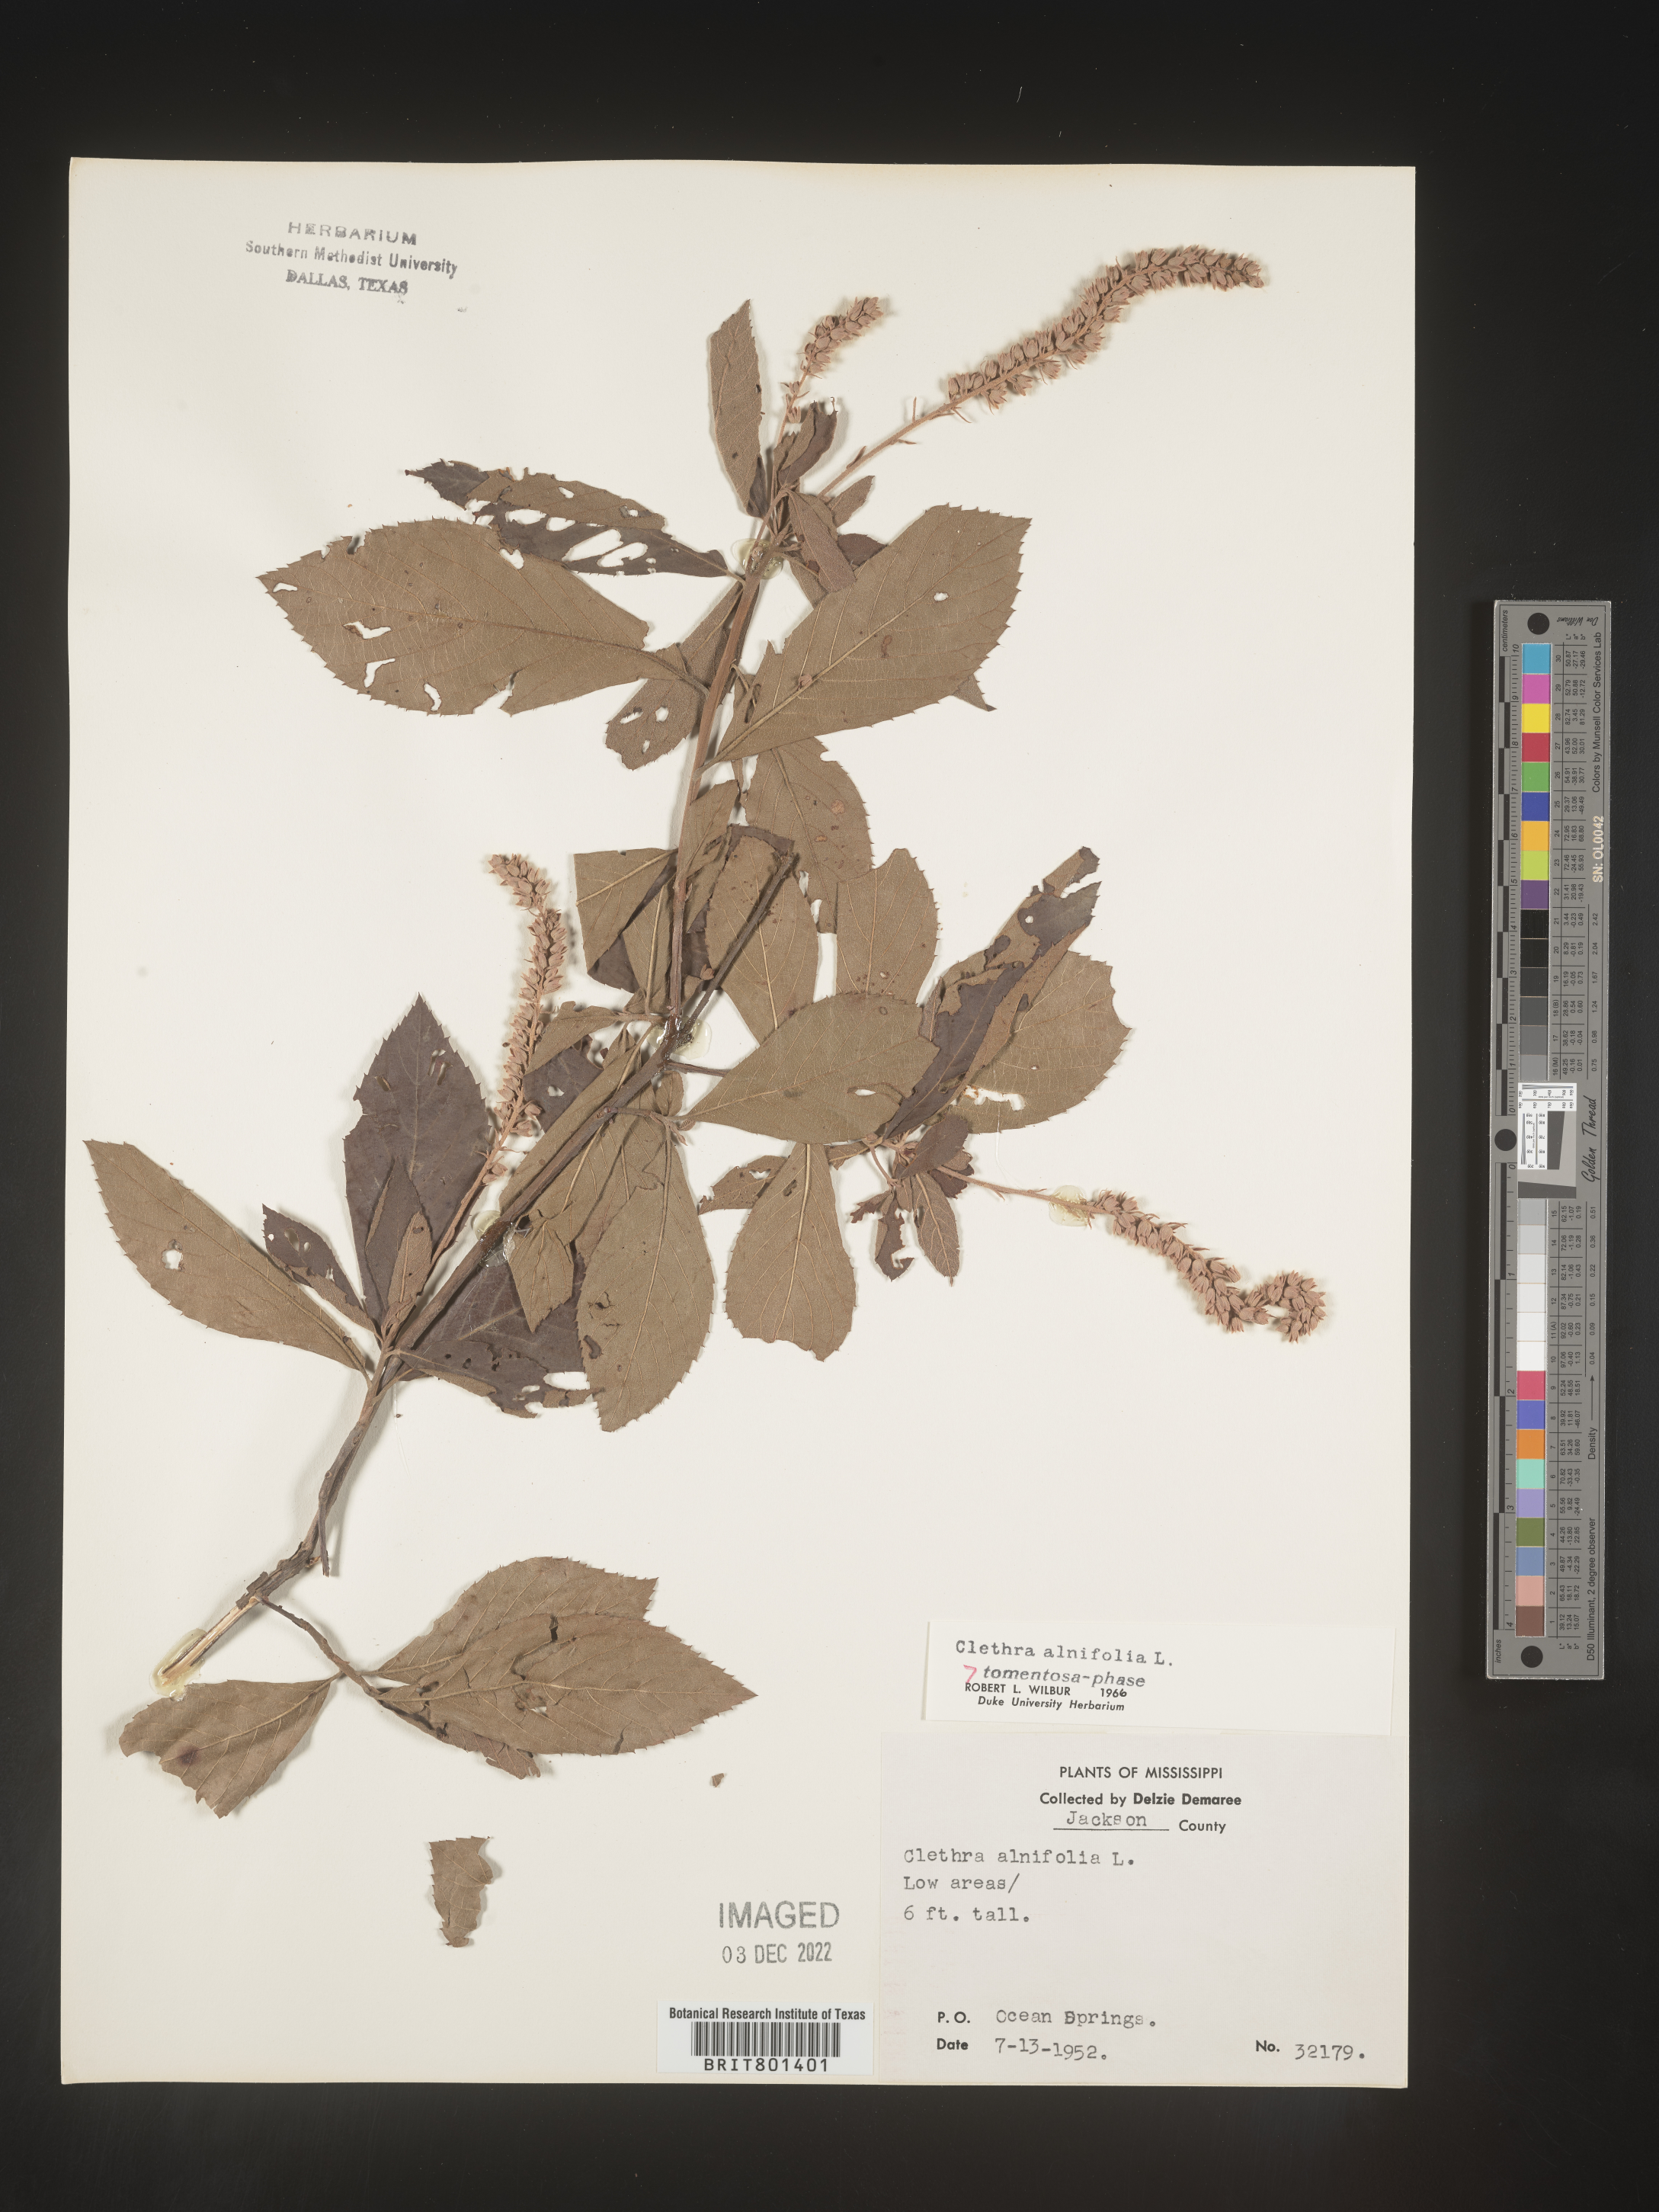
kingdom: Plantae
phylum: Tracheophyta
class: Magnoliopsida
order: Ericales
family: Clethraceae
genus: Clethra
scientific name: Clethra alnifolia
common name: Sweet pepperbush
